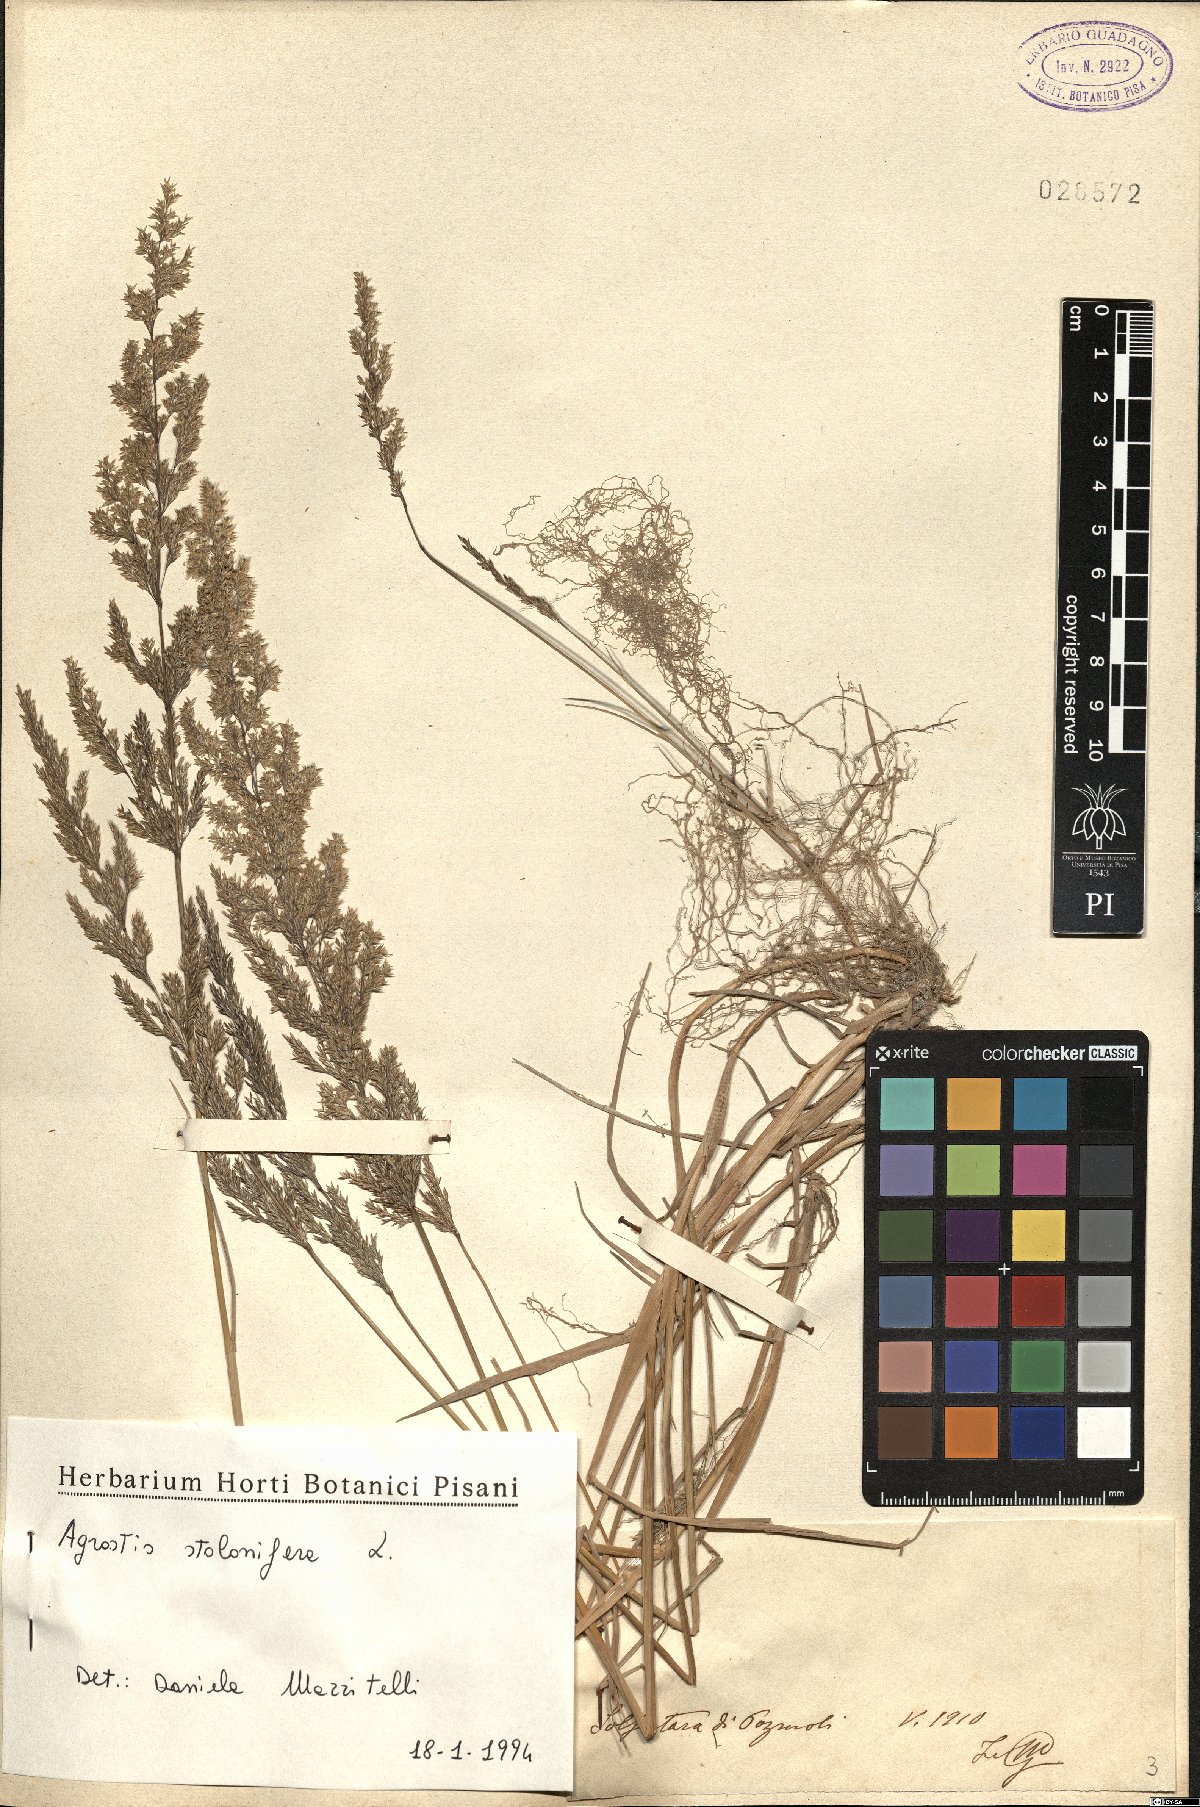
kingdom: Plantae
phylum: Tracheophyta
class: Liliopsida
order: Poales
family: Poaceae
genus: Agrostis
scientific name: Agrostis stolonifera
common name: Creeping bentgrass
